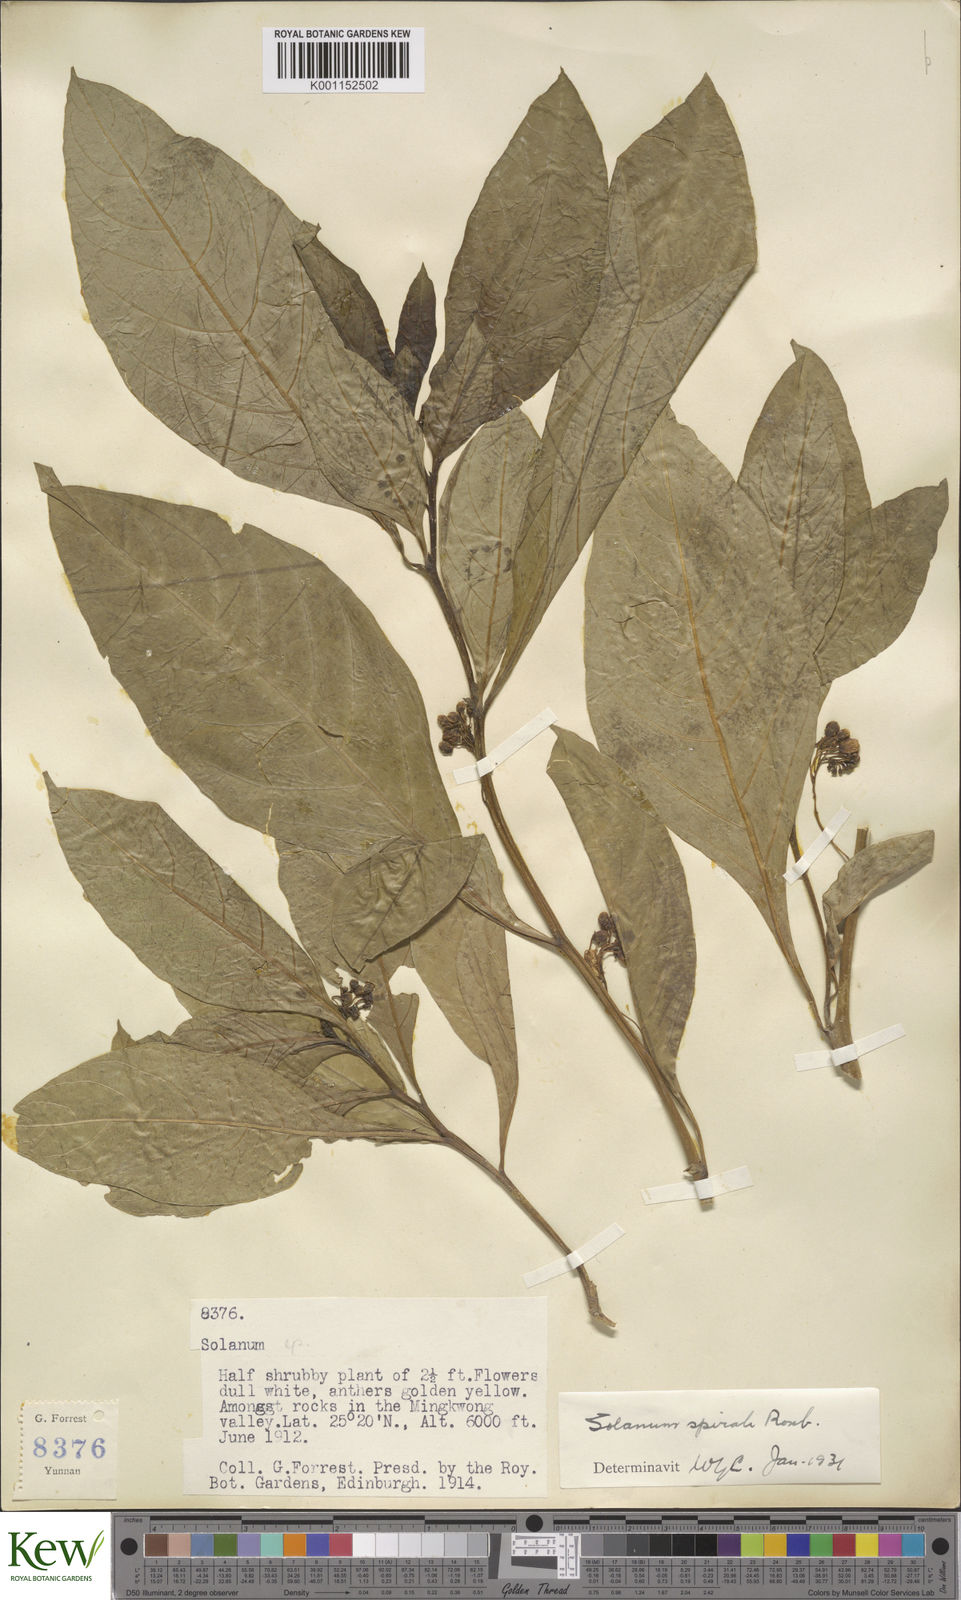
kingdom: Plantae
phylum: Tracheophyta
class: Magnoliopsida
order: Solanales
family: Solanaceae
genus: Solanum
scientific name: Solanum spirale
